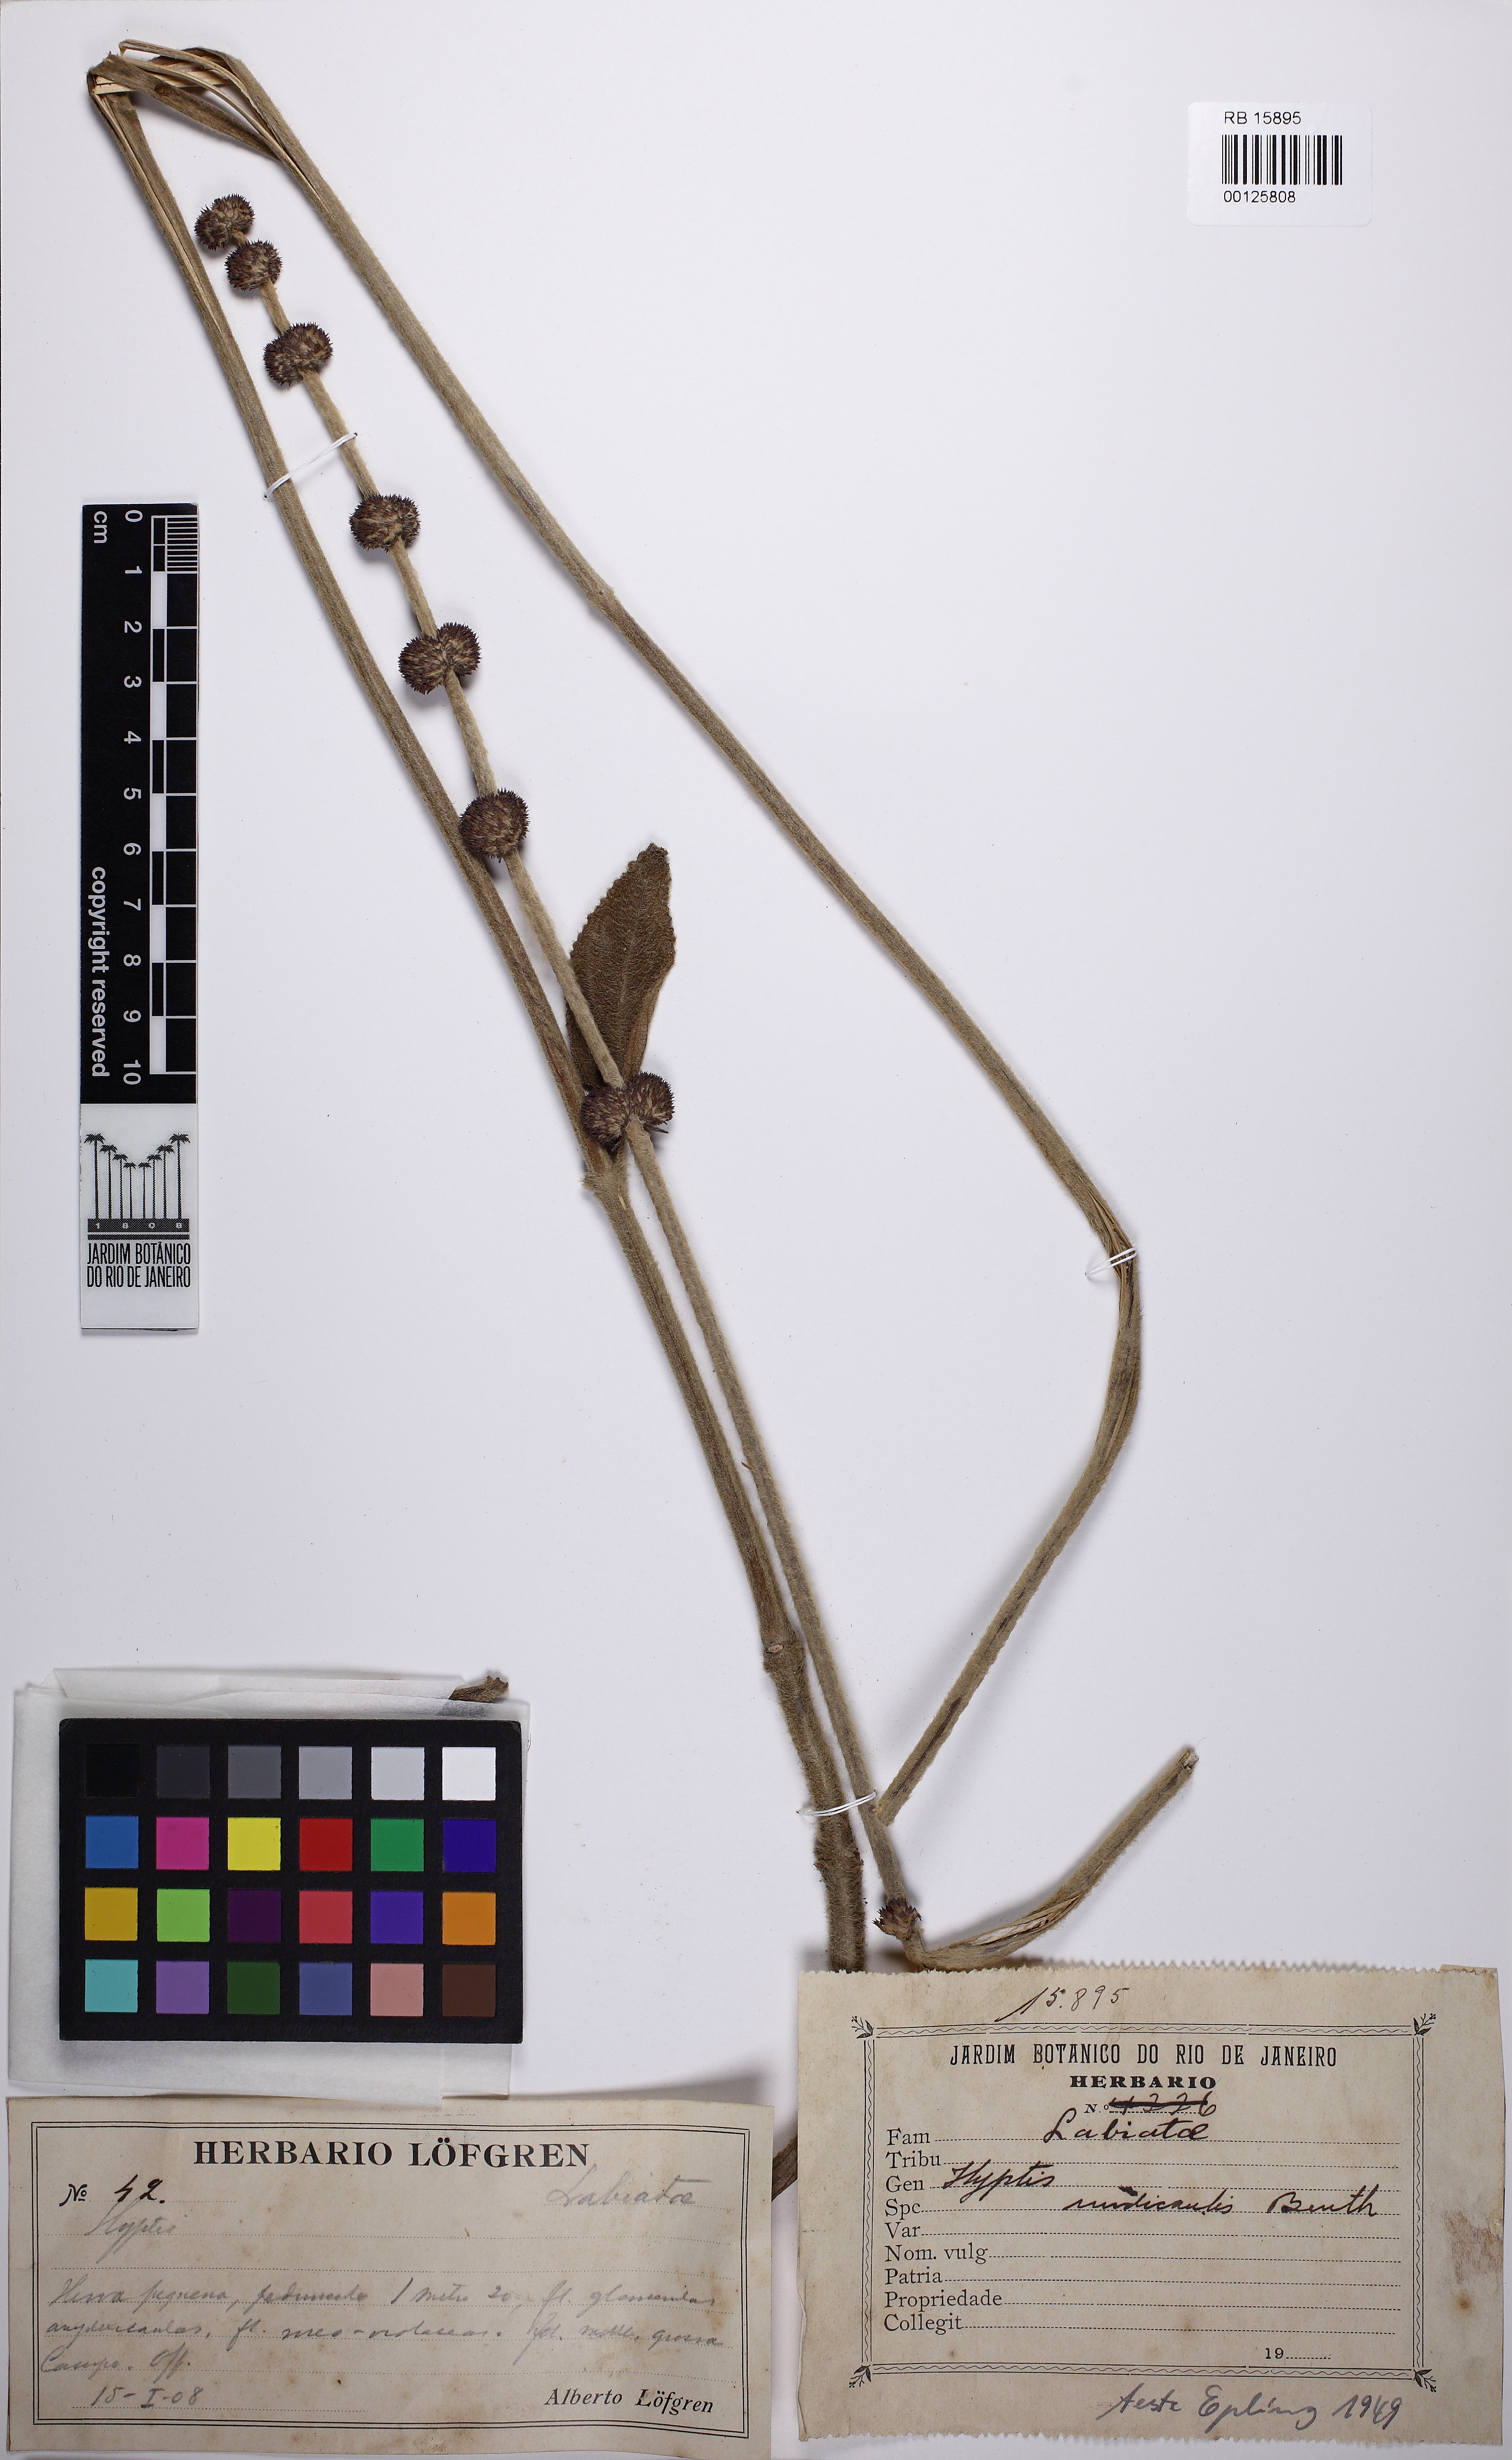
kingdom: Plantae
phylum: Tracheophyta
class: Magnoliopsida
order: Lamiales
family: Lamiaceae
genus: Hyptis
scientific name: Hyptis nudicaulis
